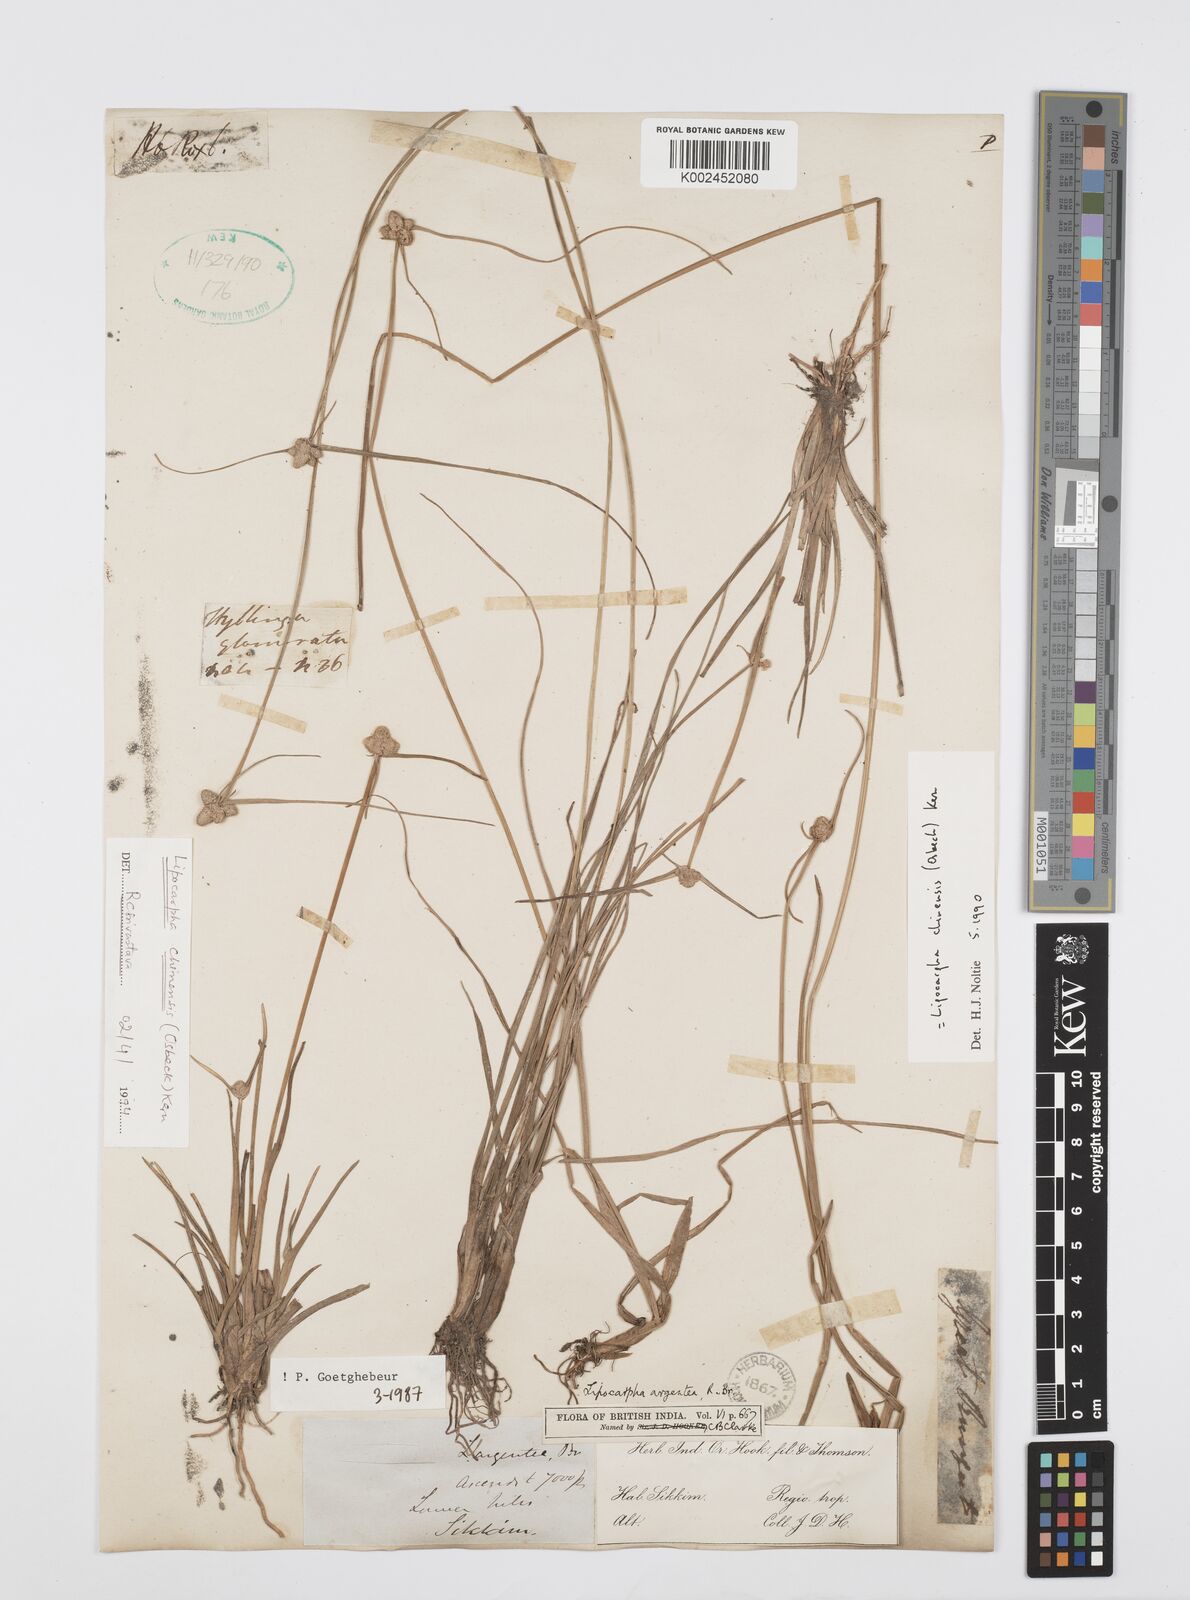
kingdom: Plantae
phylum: Tracheophyta
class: Liliopsida
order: Poales
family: Cyperaceae
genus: Cyperus
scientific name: Cyperus
